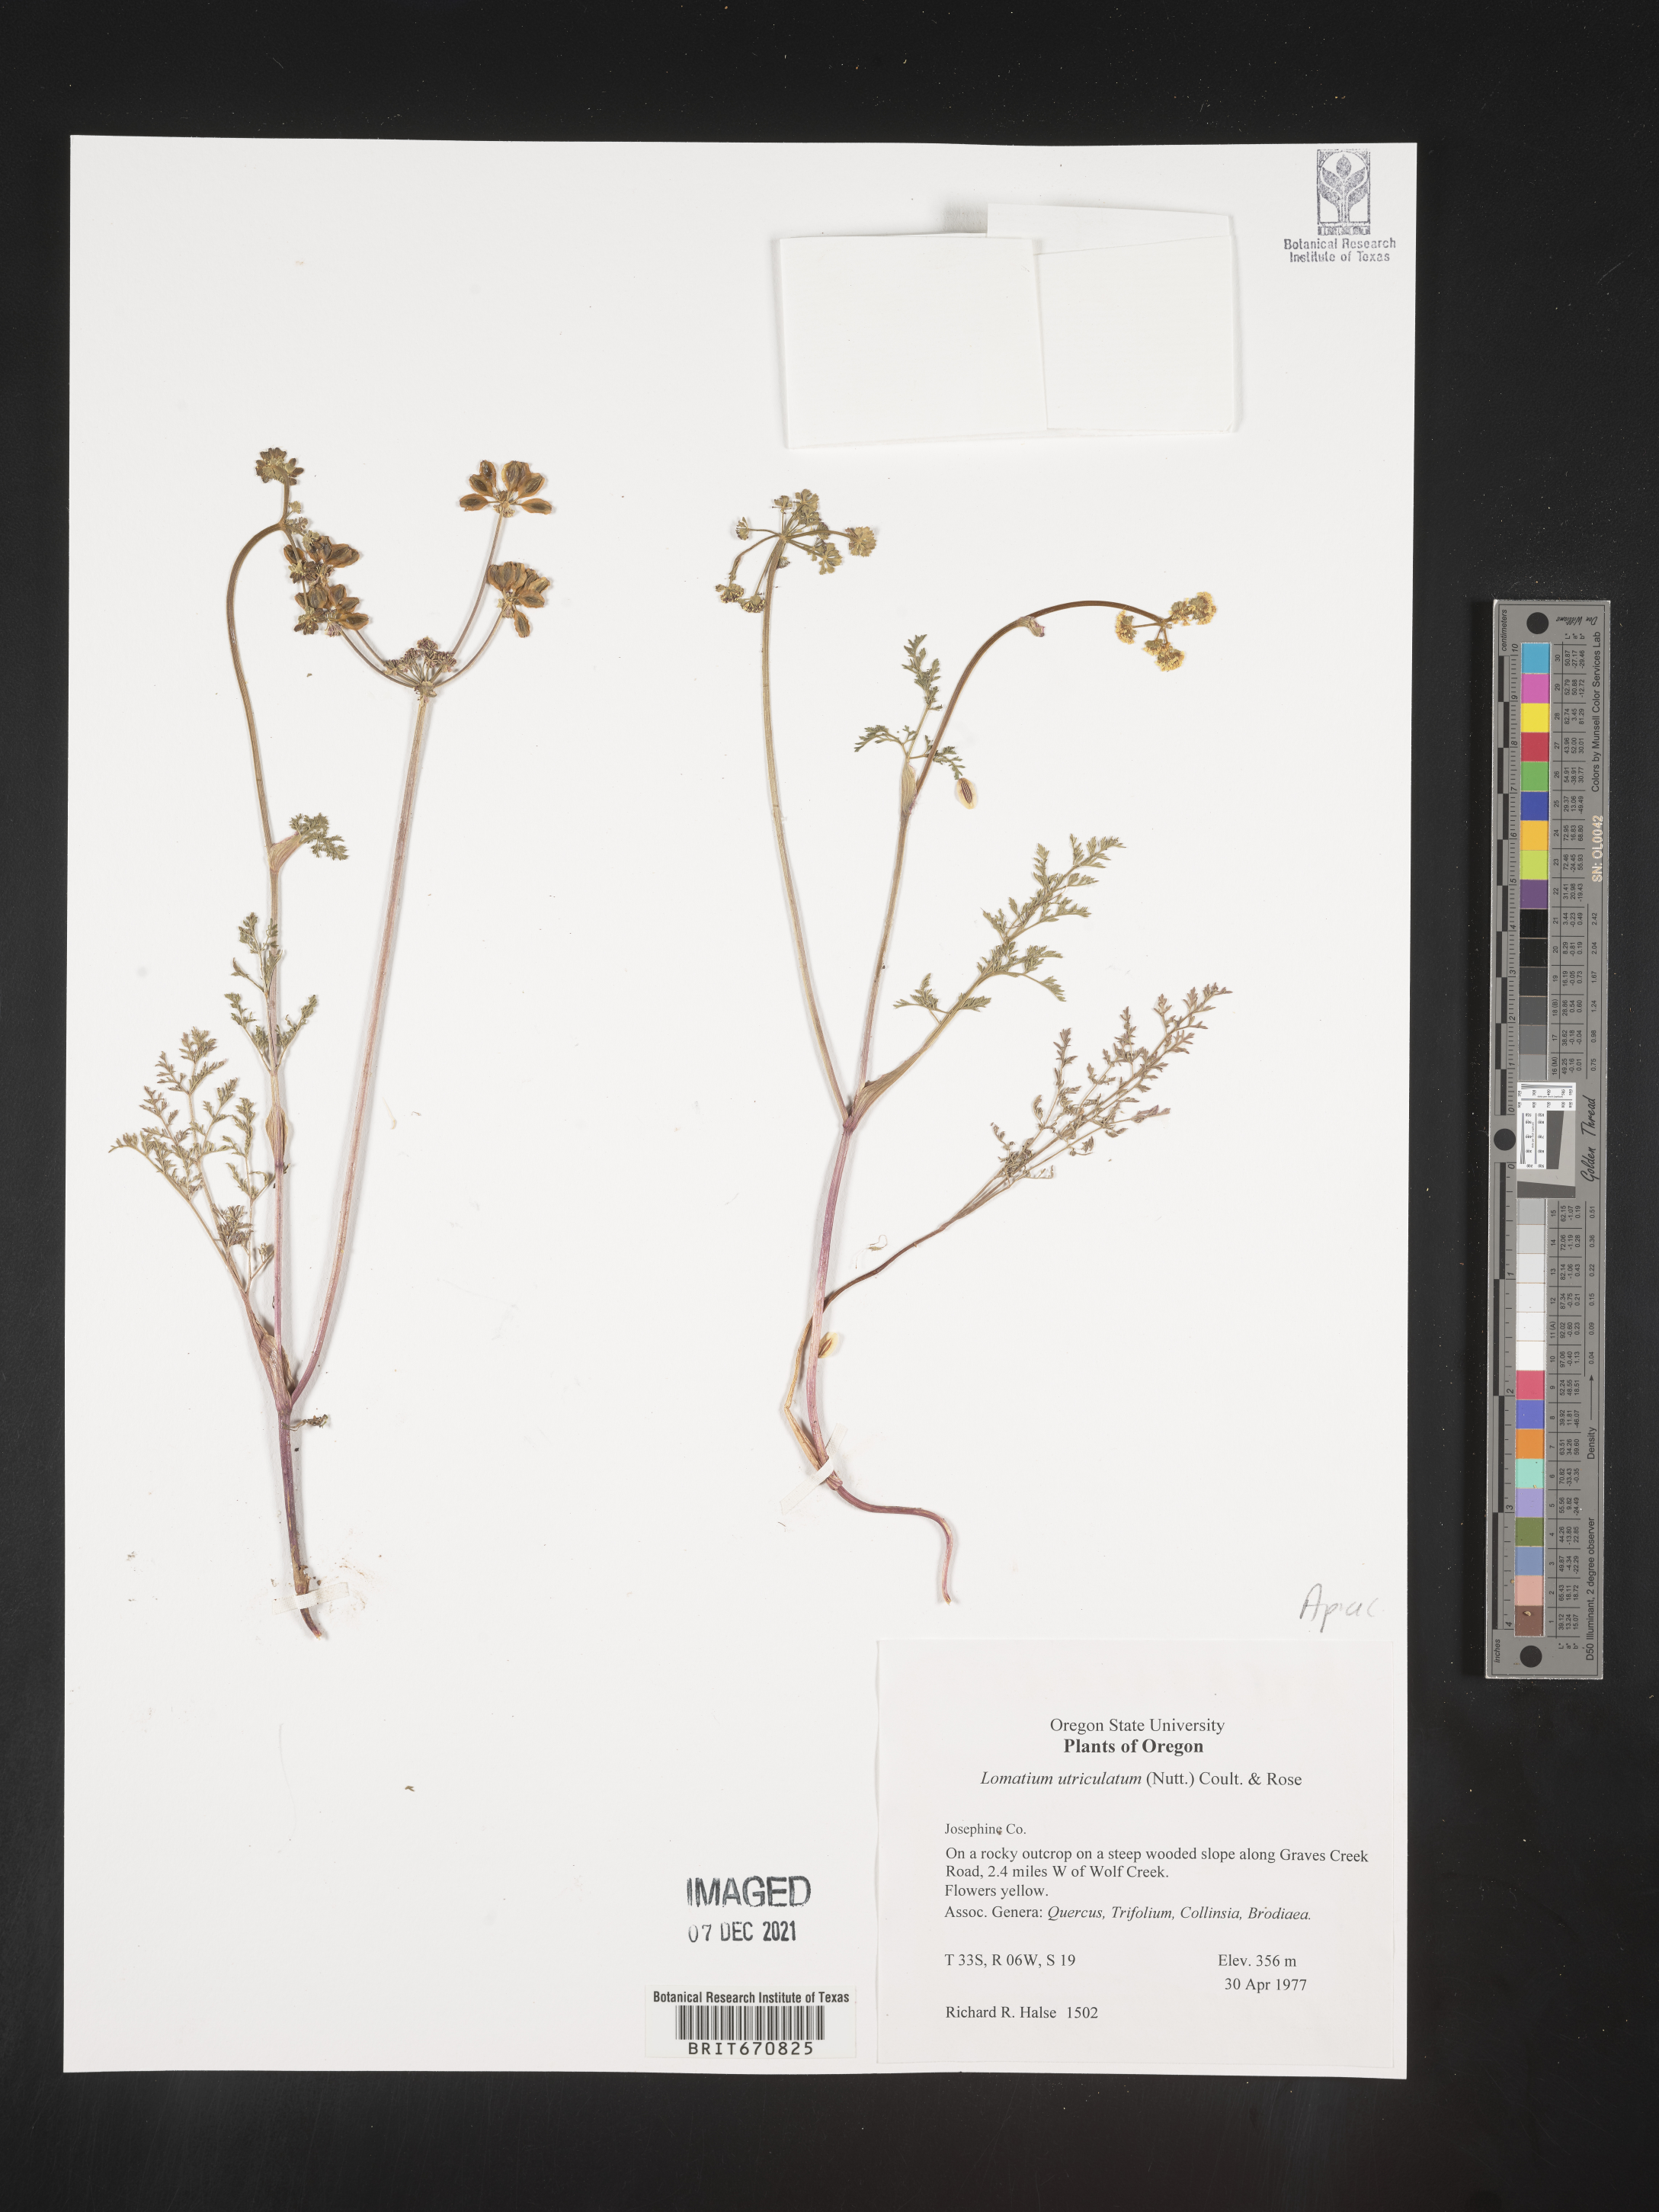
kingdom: Plantae
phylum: Tracheophyta
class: Magnoliopsida
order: Apiales
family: Apiaceae
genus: Lomatium
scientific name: Lomatium utriculatum
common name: Fine-leaf desert-parsley
